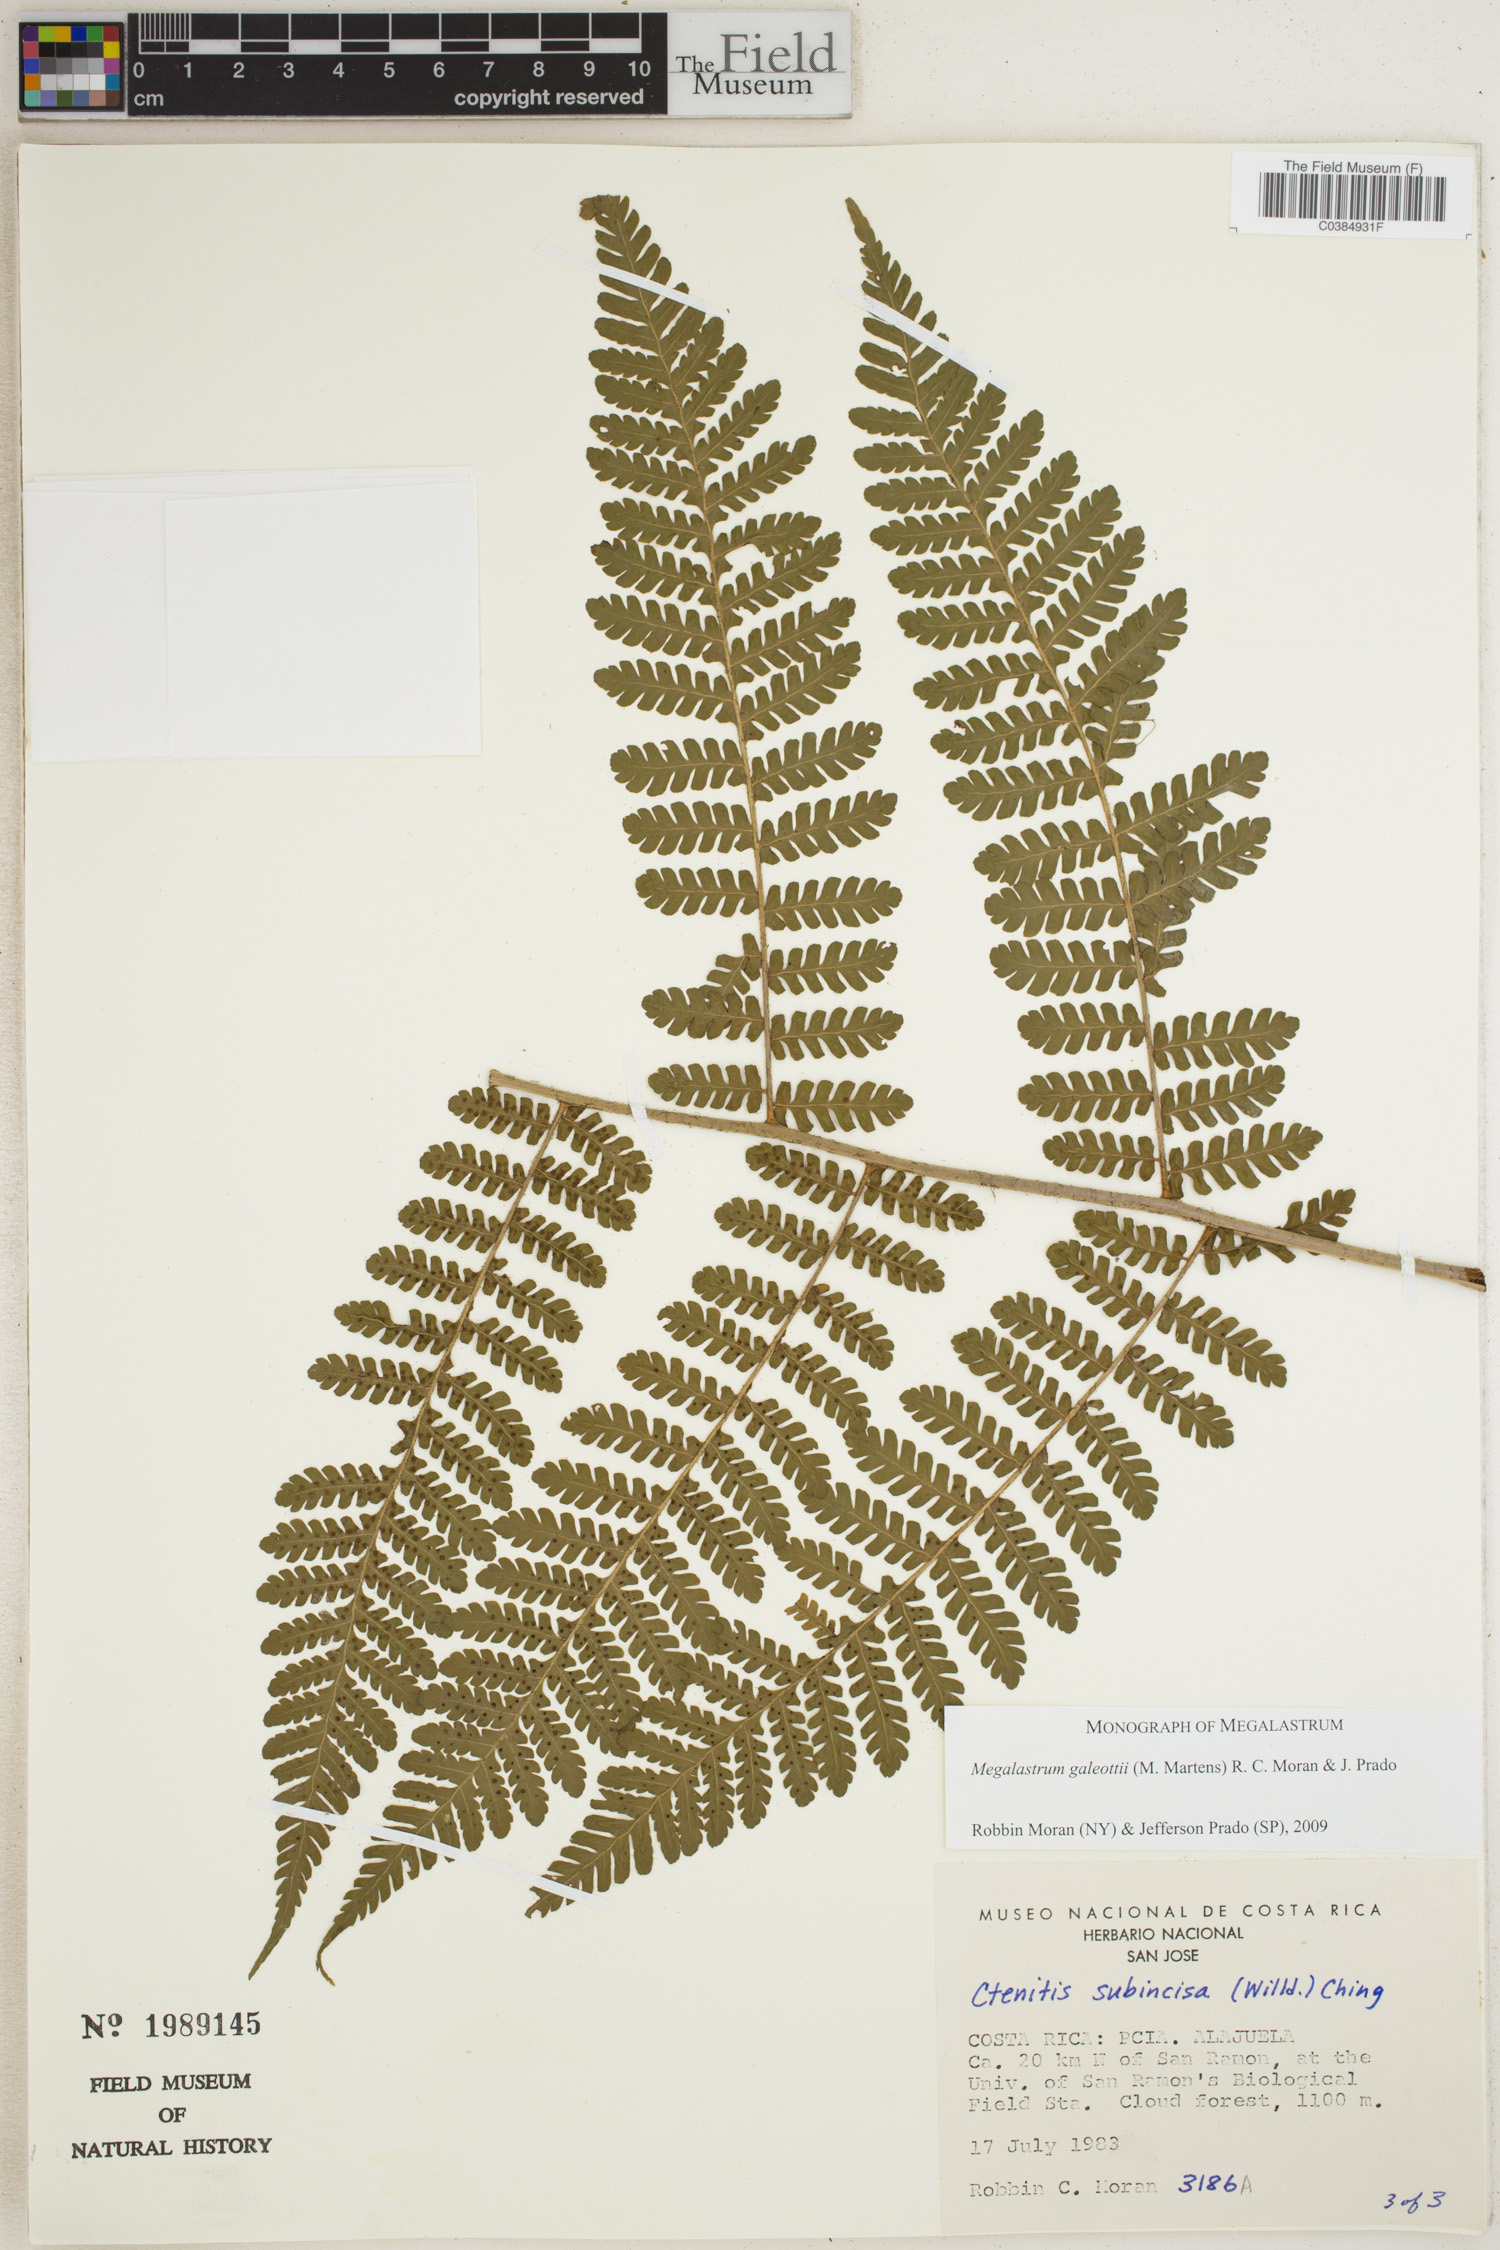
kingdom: Plantae
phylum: Tracheophyta
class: Polypodiopsida
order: Polypodiales
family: Dryopteridaceae
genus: Megalastrum
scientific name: Megalastrum galeottii
